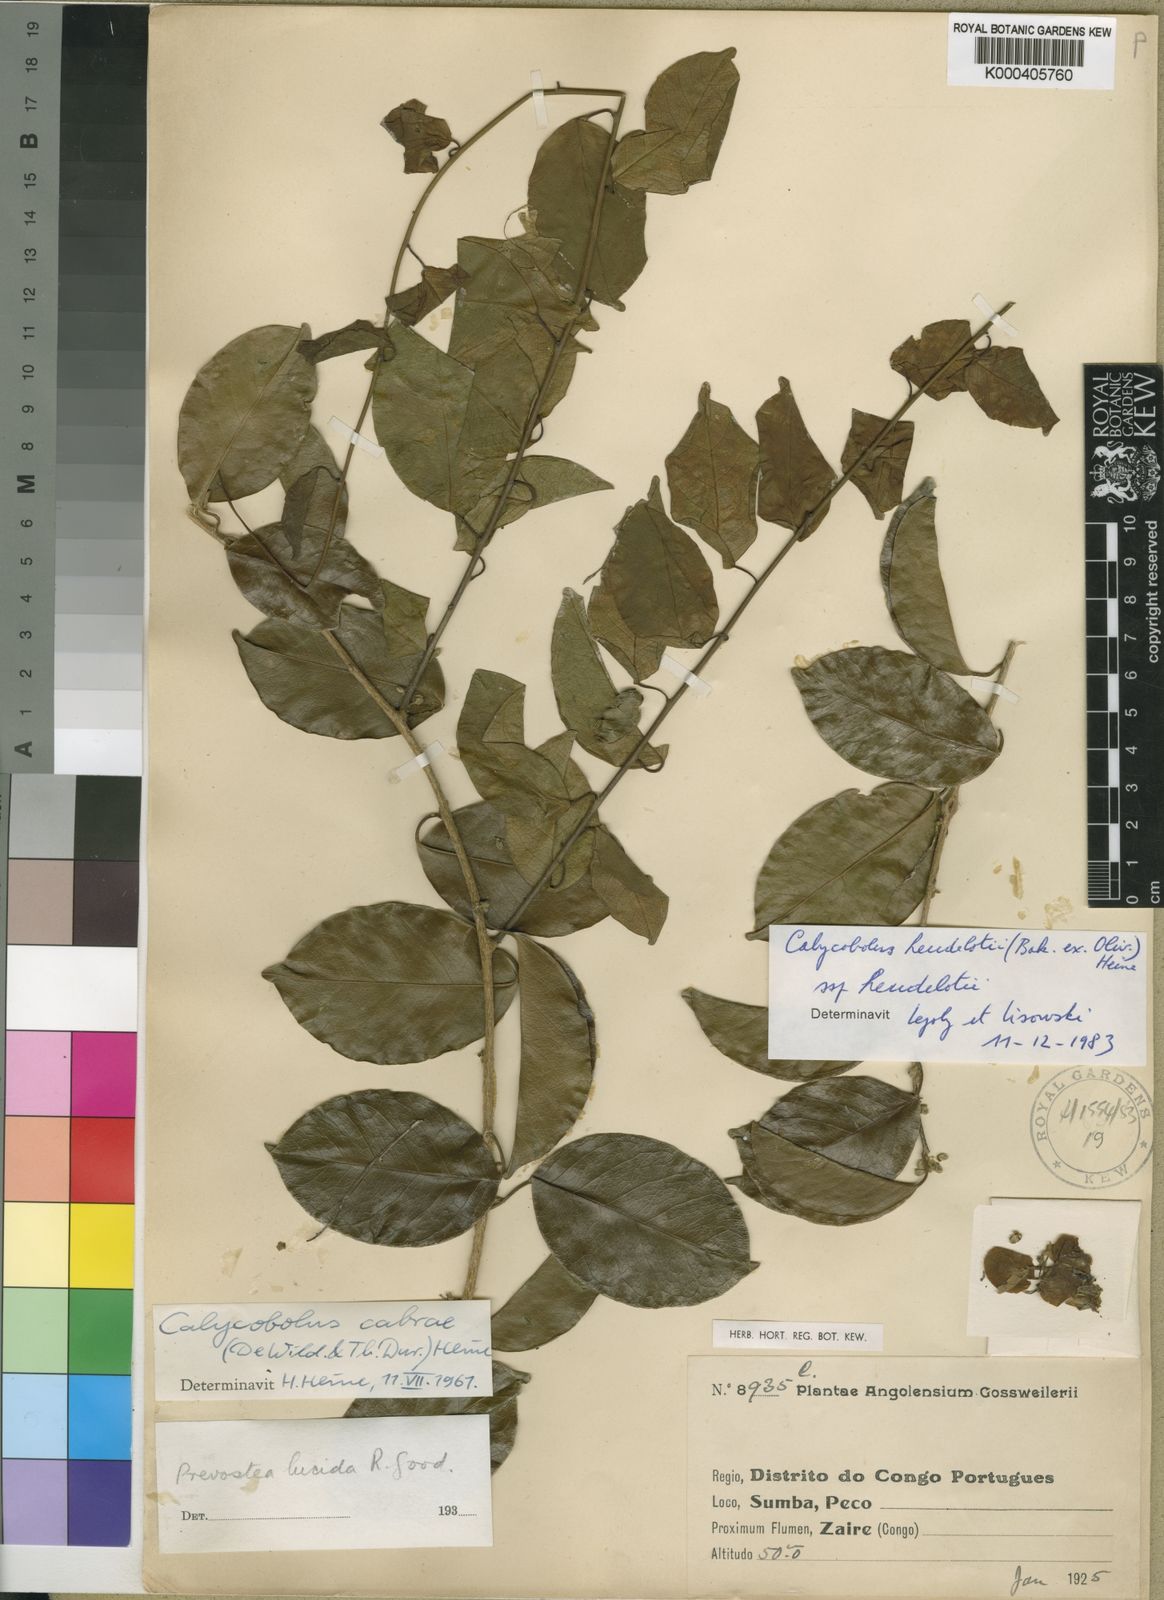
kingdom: Plantae
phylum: Tracheophyta
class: Magnoliopsida
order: Solanales
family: Convolvulaceae
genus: Calycobolus
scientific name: Calycobolus cabrae
